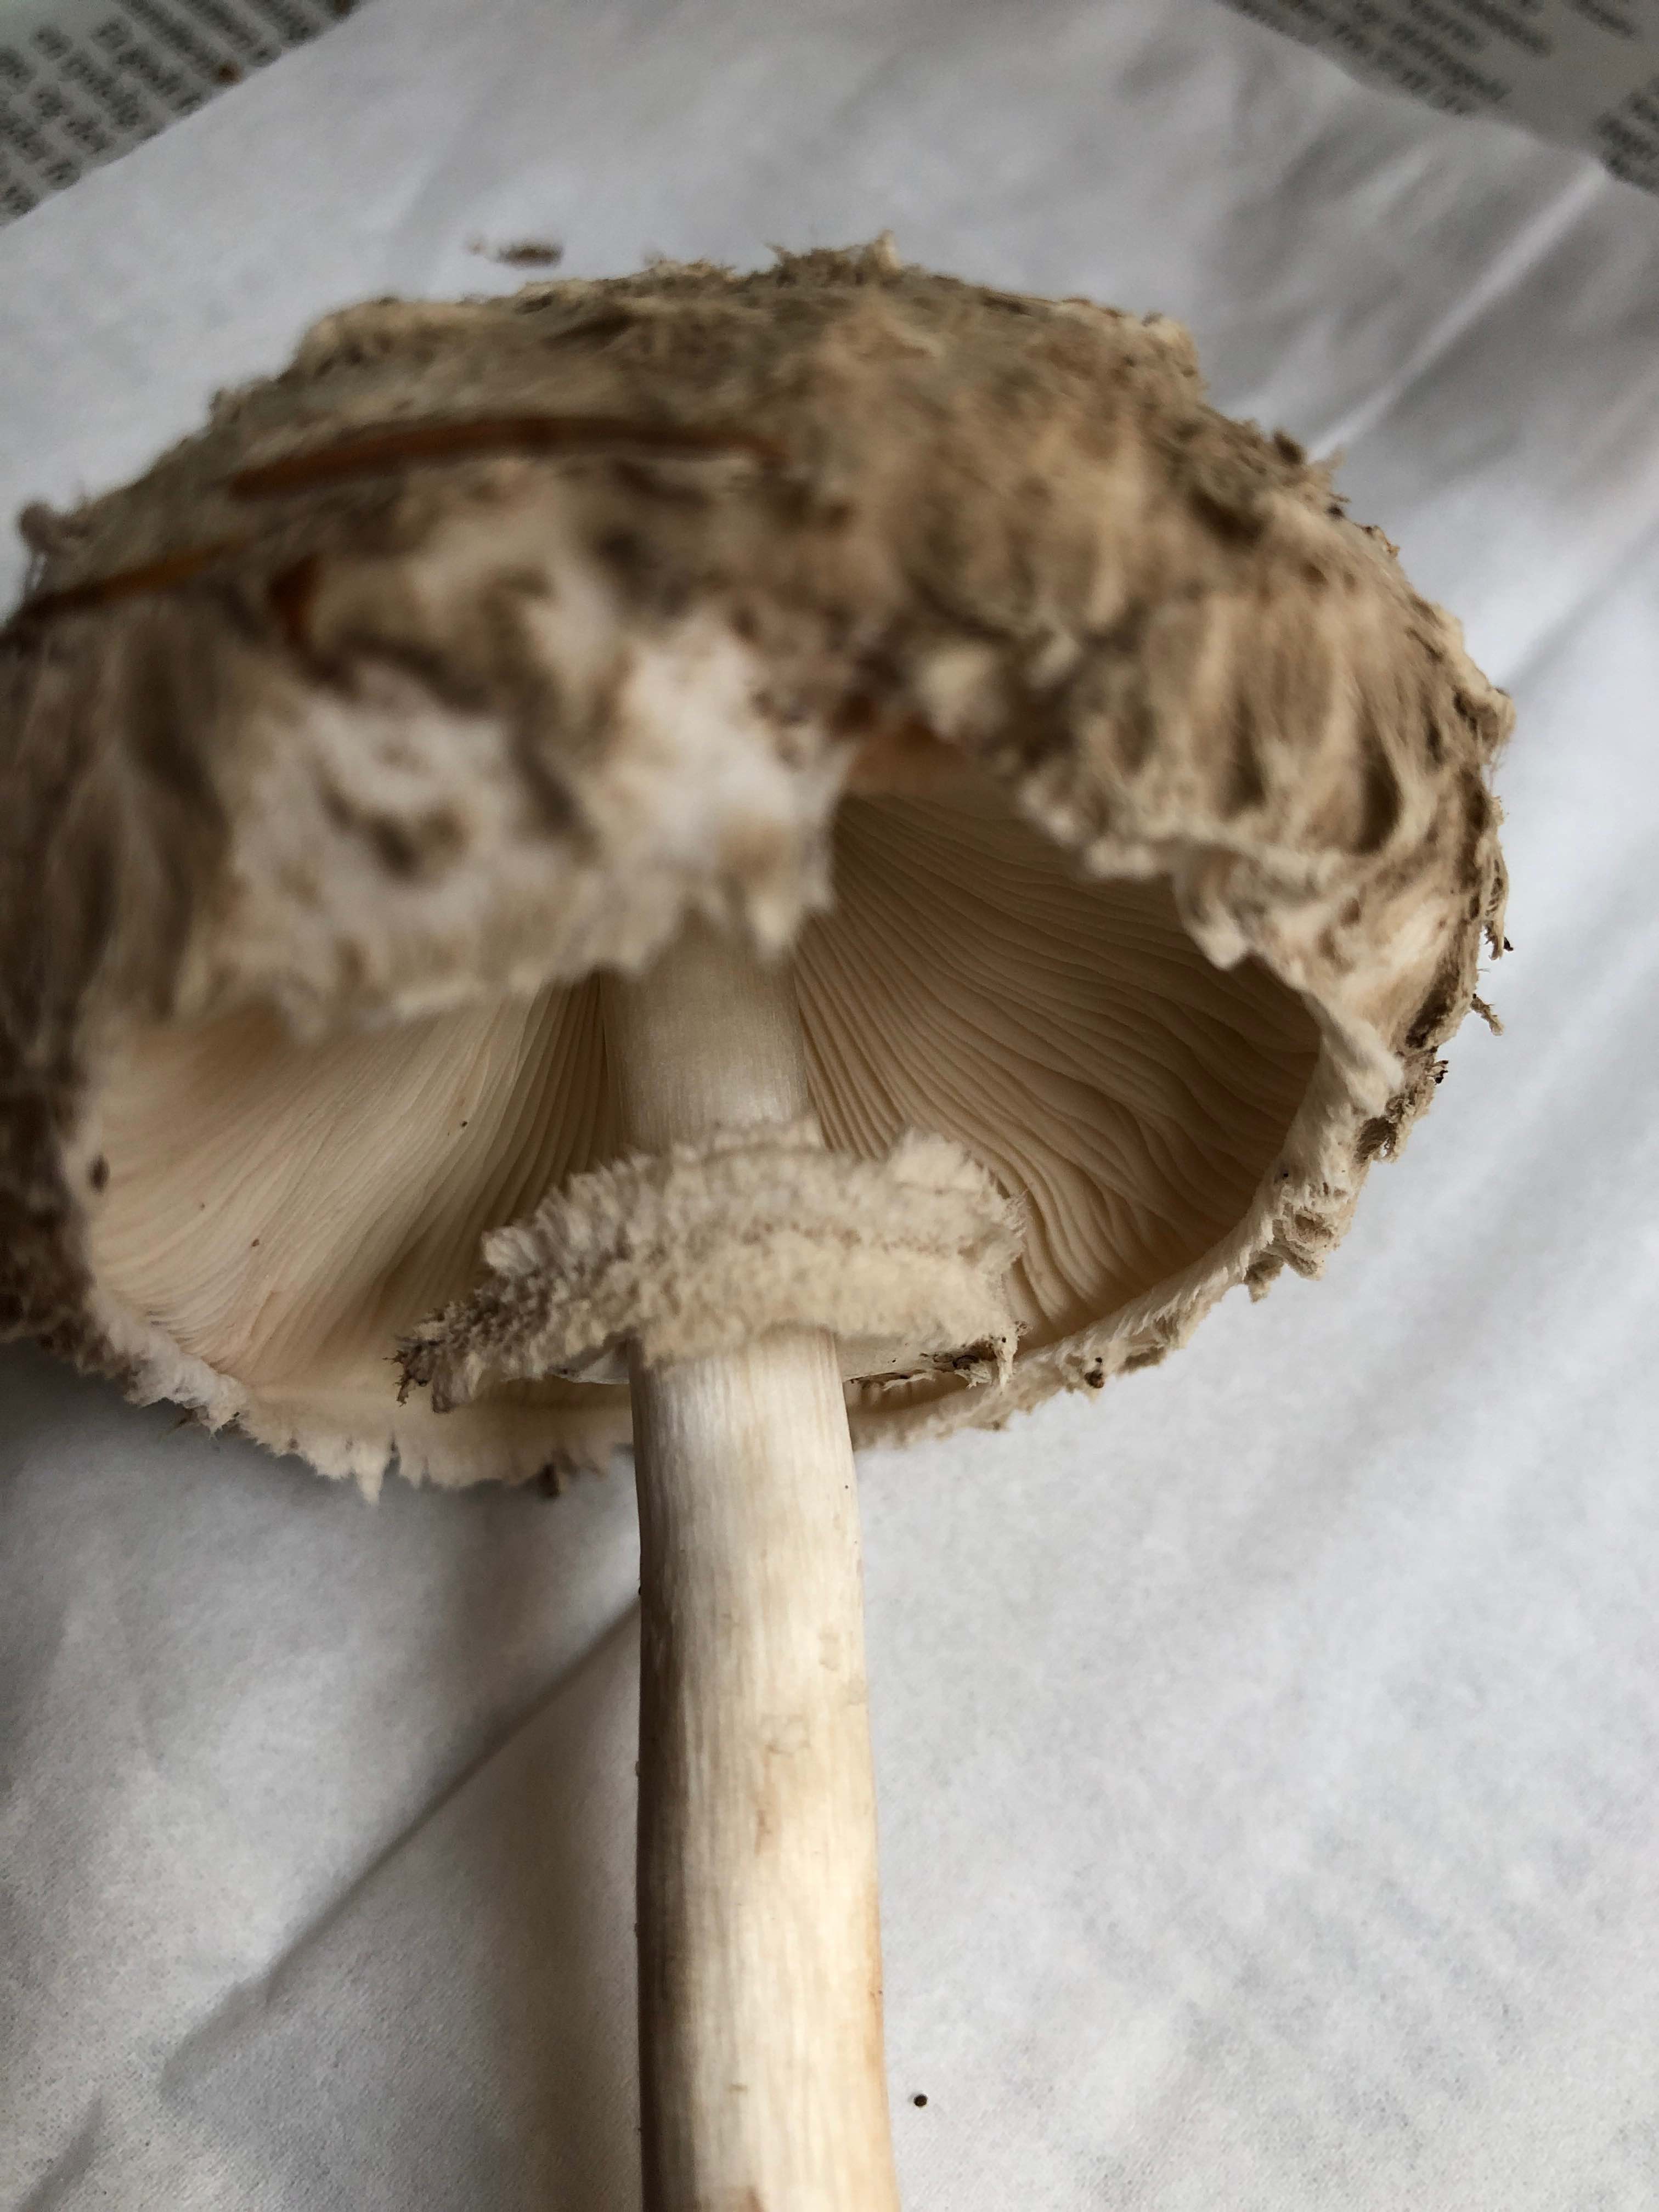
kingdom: Fungi
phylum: Basidiomycota
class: Agaricomycetes
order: Agaricales
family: Agaricaceae
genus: Chlorophyllum
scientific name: Chlorophyllum olivieri
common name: almindelig rabarberhat
